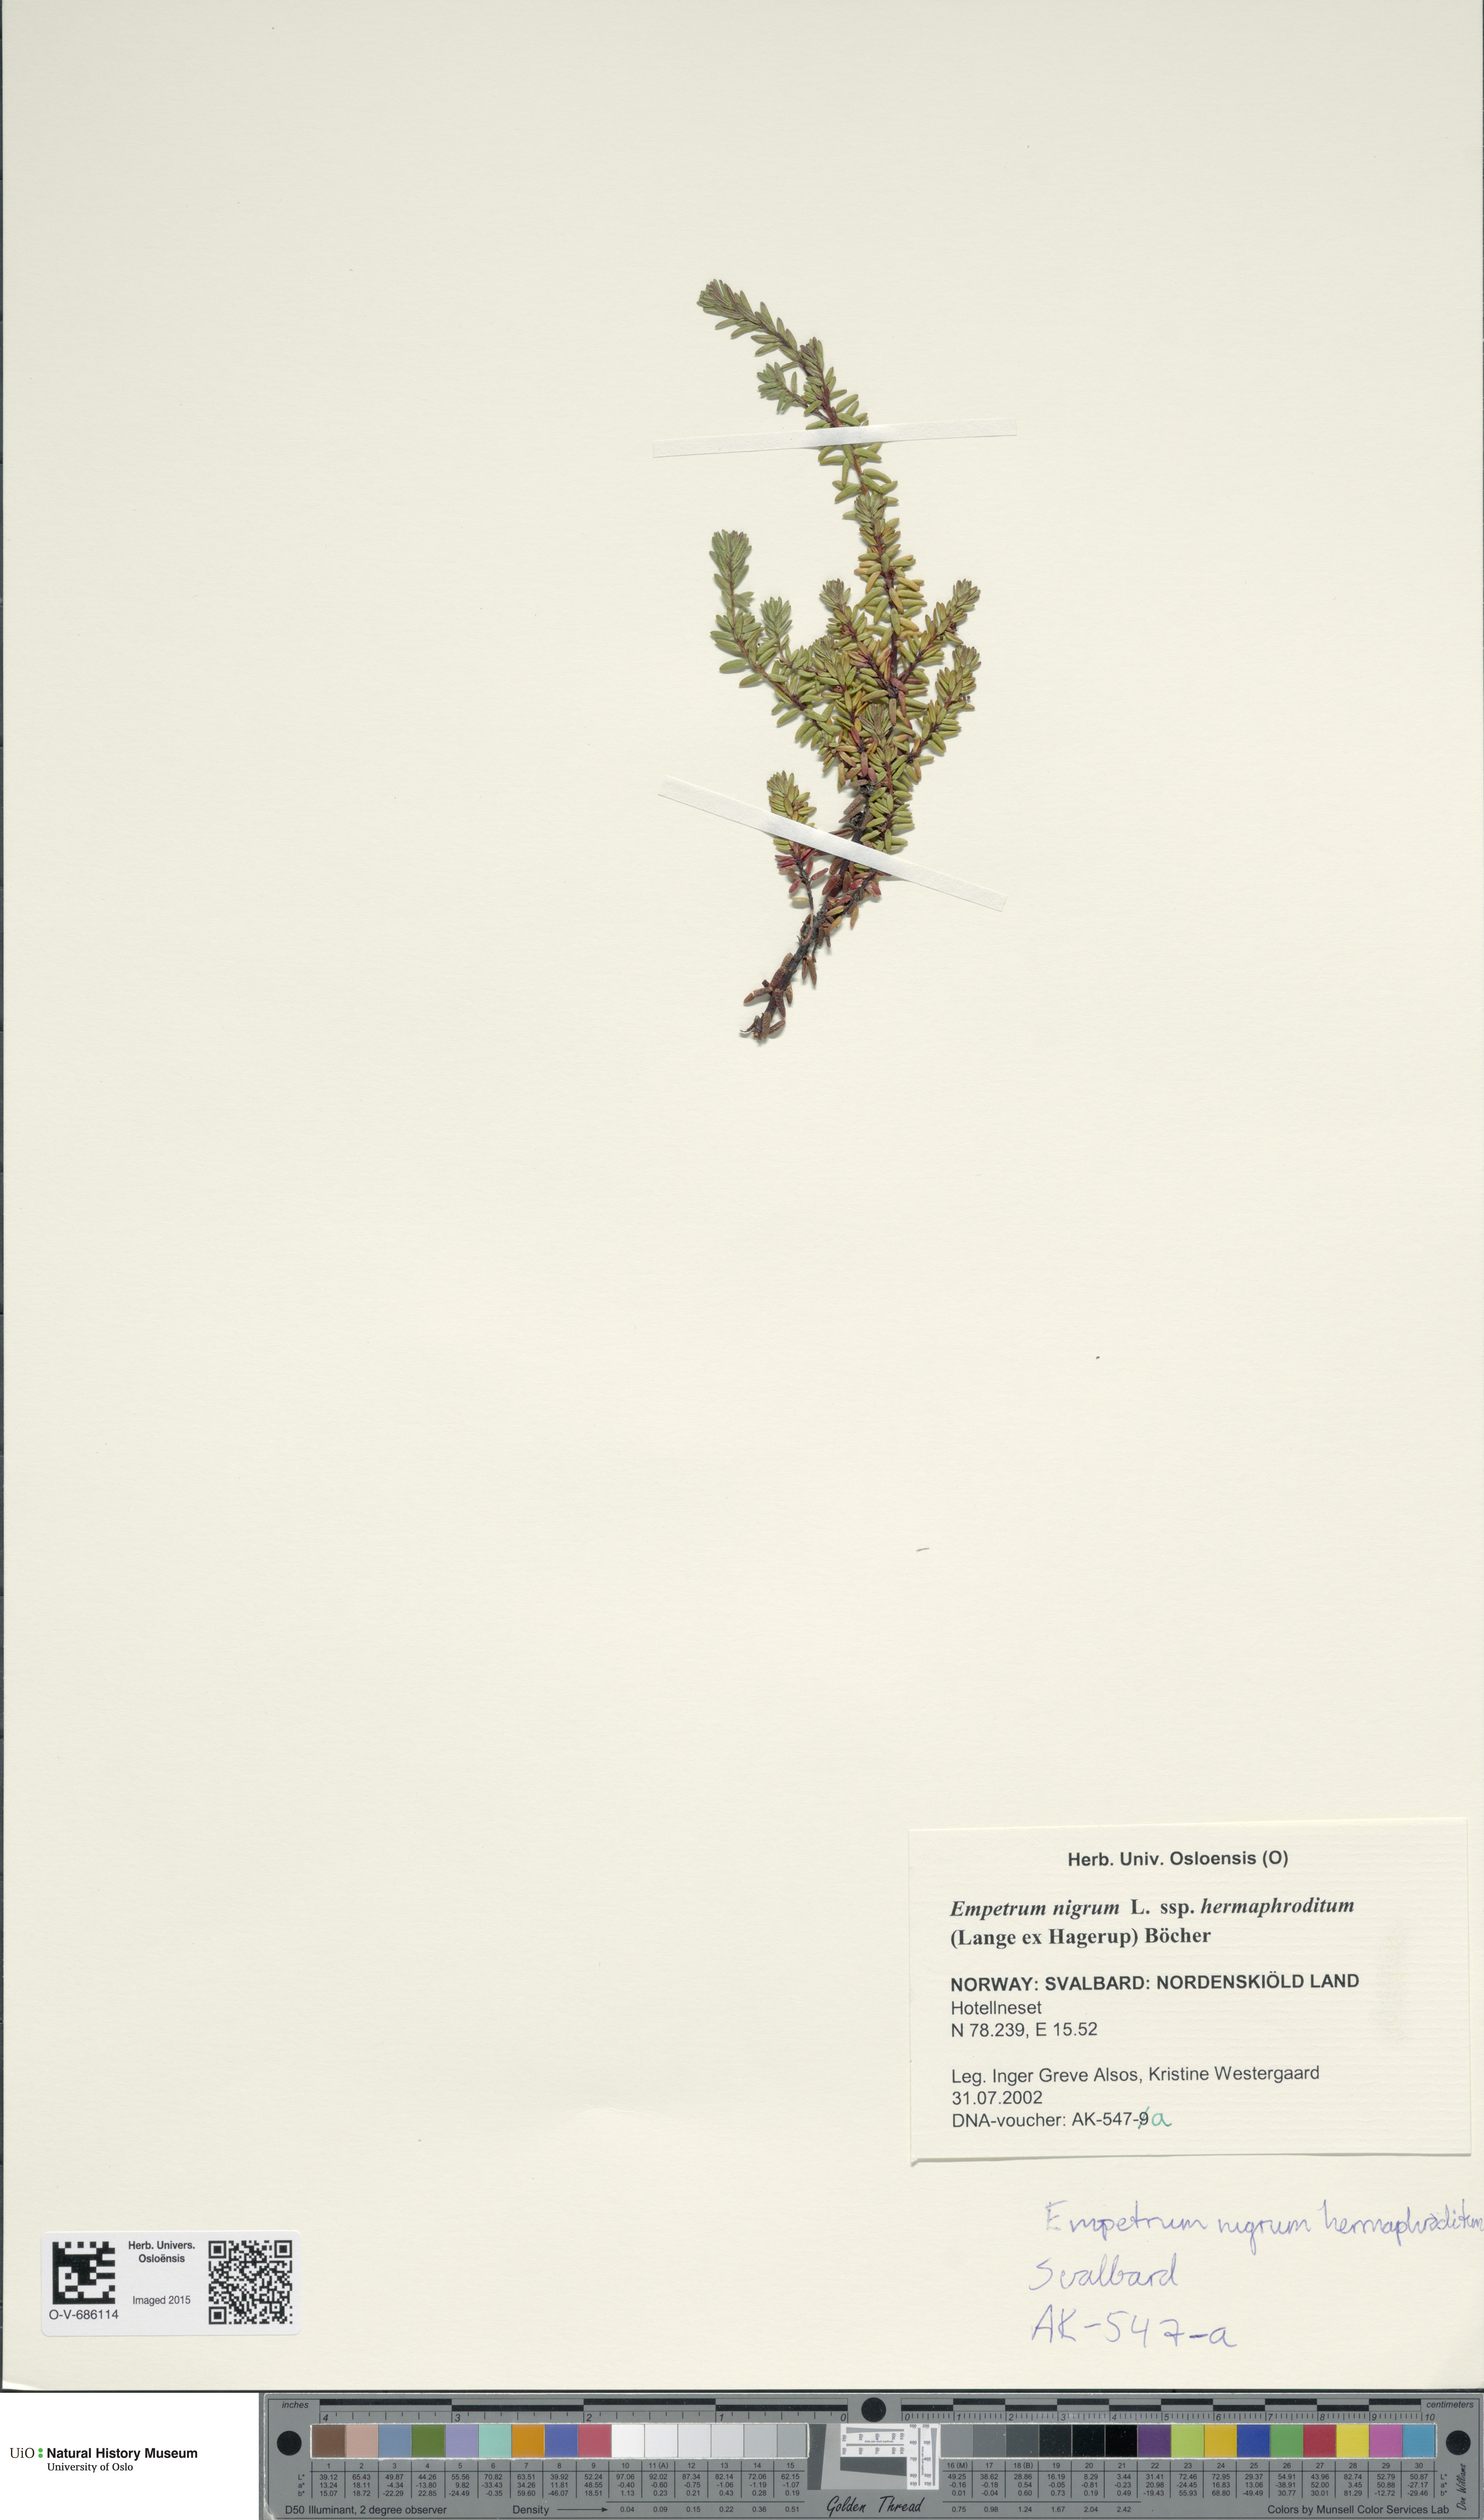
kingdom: Plantae
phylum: Tracheophyta
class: Magnoliopsida
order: Ericales
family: Ericaceae
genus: Empetrum
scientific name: Empetrum nigrum
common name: Black crowberry
